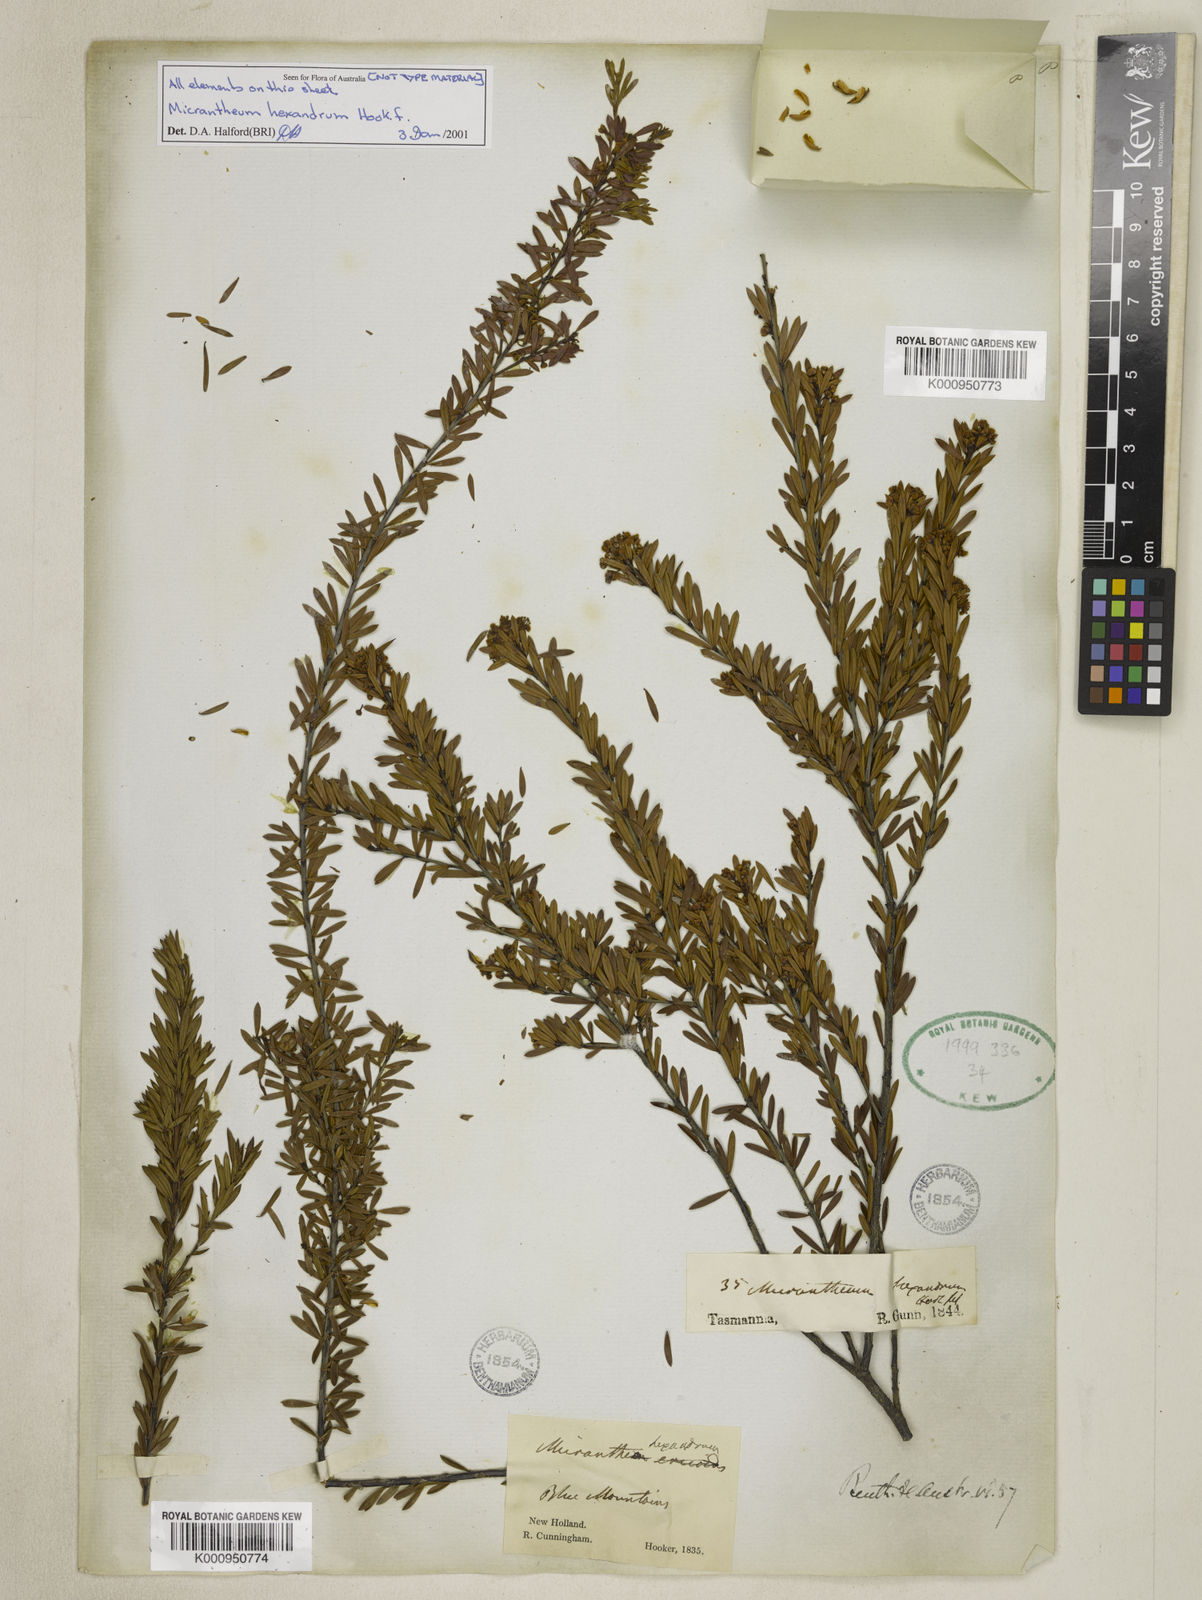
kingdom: Plantae
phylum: Tracheophyta
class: Magnoliopsida
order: Malpighiales
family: Picrodendraceae
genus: Micrantheum
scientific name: Micrantheum hexandrum
